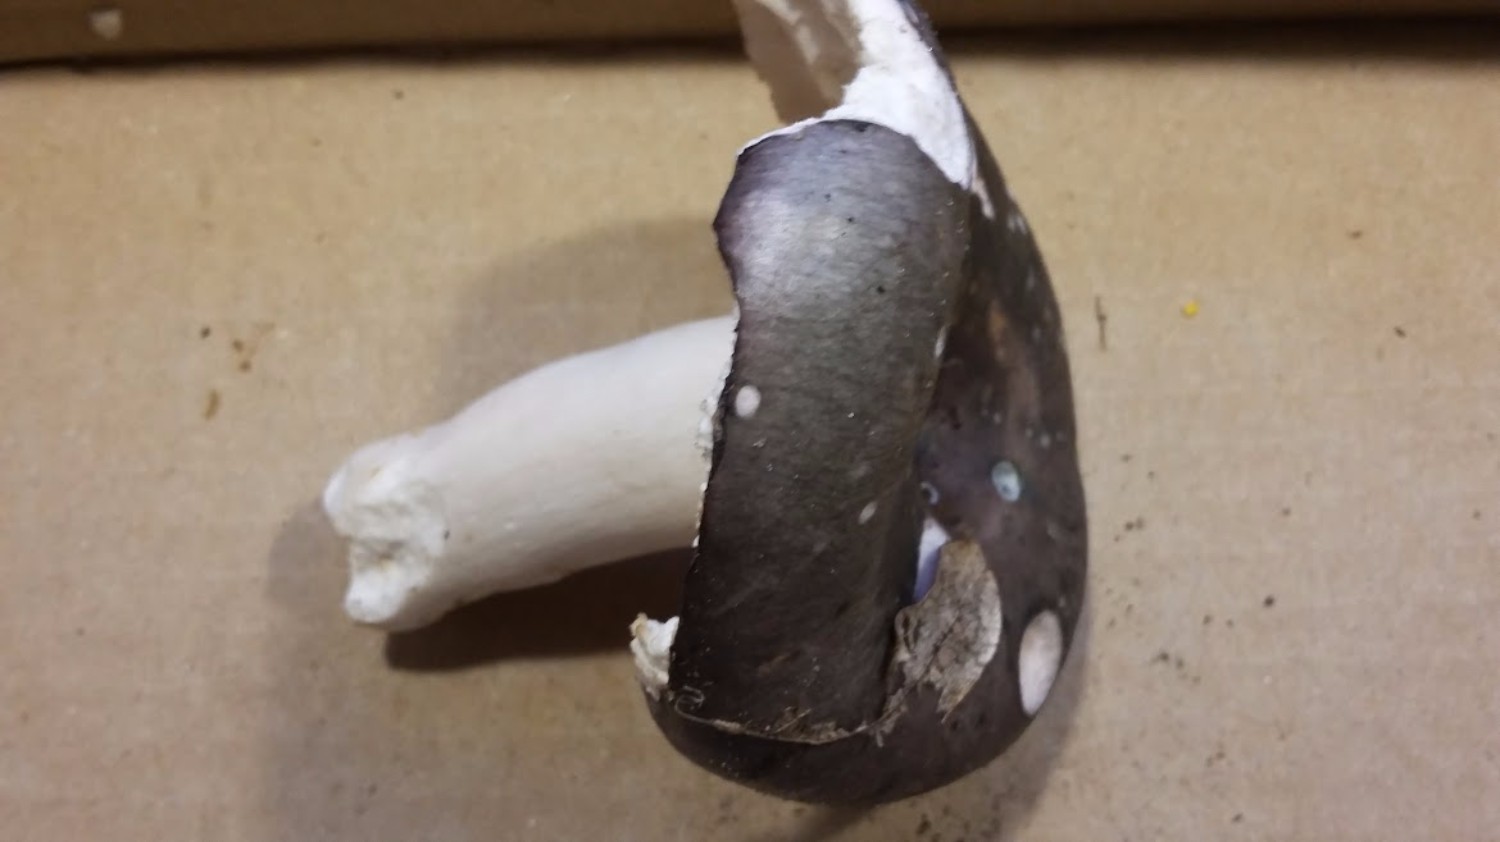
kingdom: Fungi
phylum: Basidiomycota
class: Agaricomycetes
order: Russulales
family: Russulaceae
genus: Russula
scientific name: Russula cyanoxantha
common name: broget skørhat
